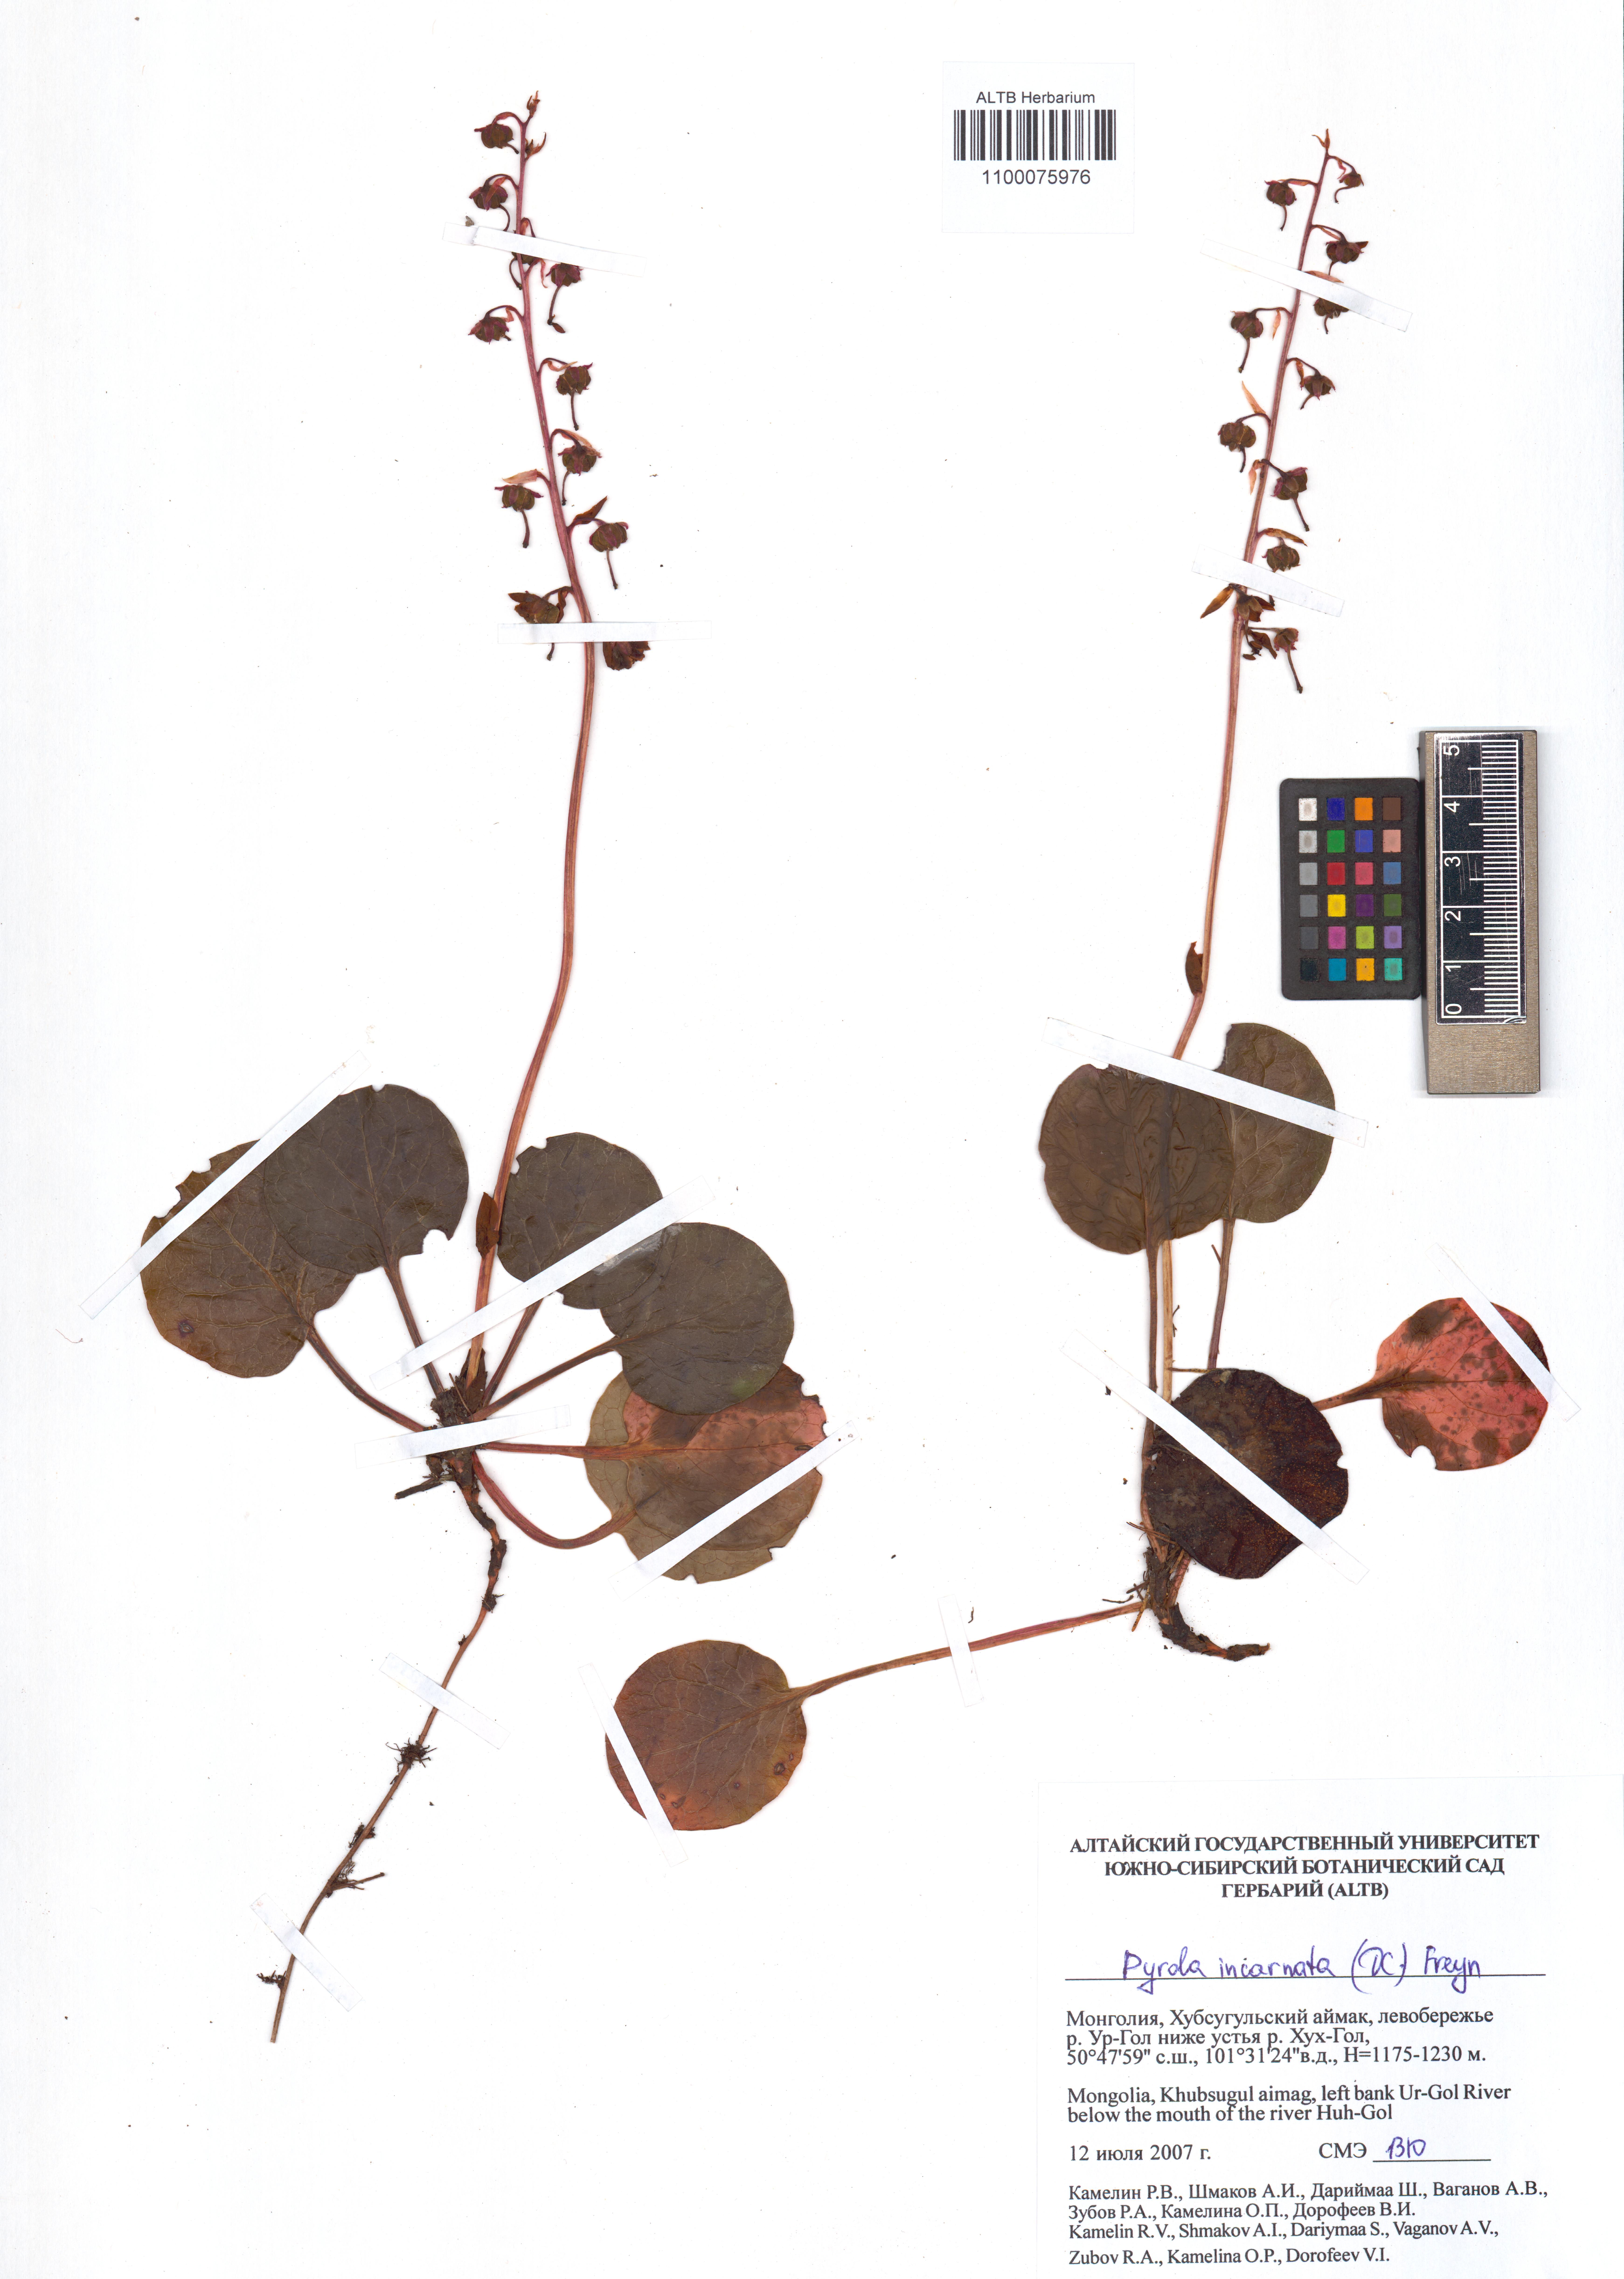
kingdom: Plantae
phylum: Tracheophyta
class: Magnoliopsida
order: Ericales
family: Ericaceae
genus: Pyrola
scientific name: Pyrola asarifolia
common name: Bog wintergreen
